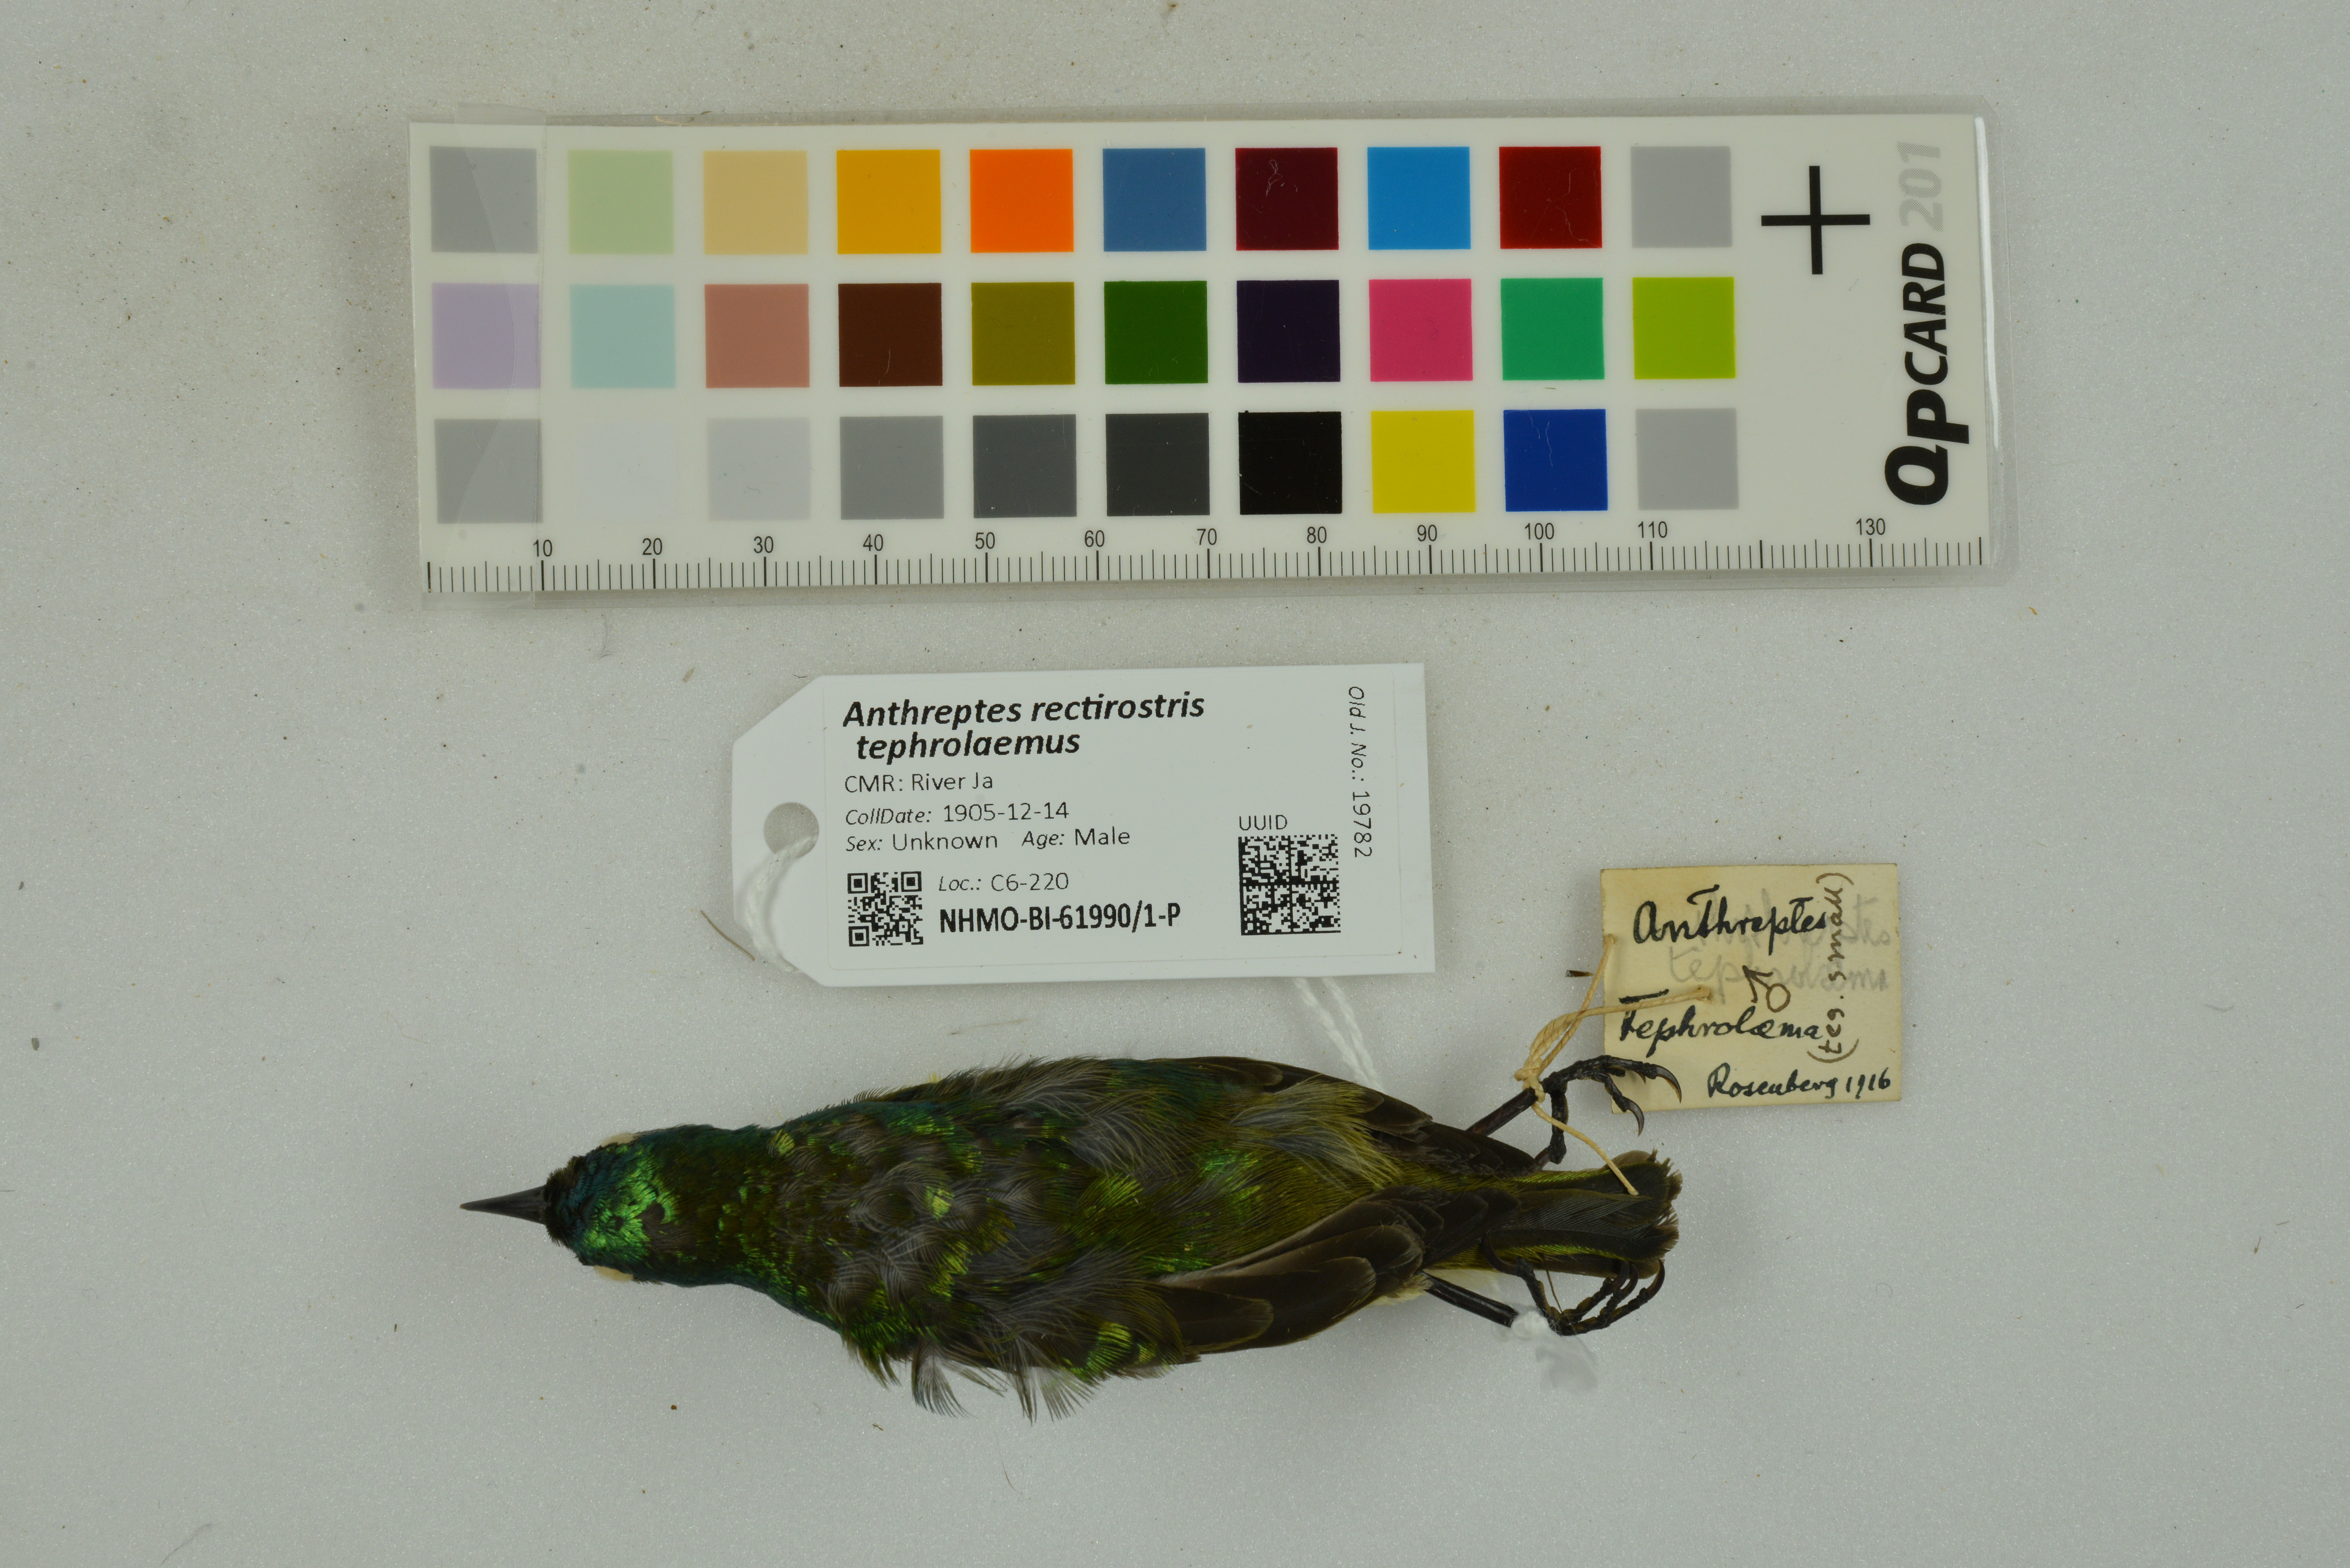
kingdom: Animalia
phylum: Chordata
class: Aves
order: Passeriformes
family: Nectariniidae
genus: Anthreptes
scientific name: Anthreptes rectirostris
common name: Grey-chinned sunbird
